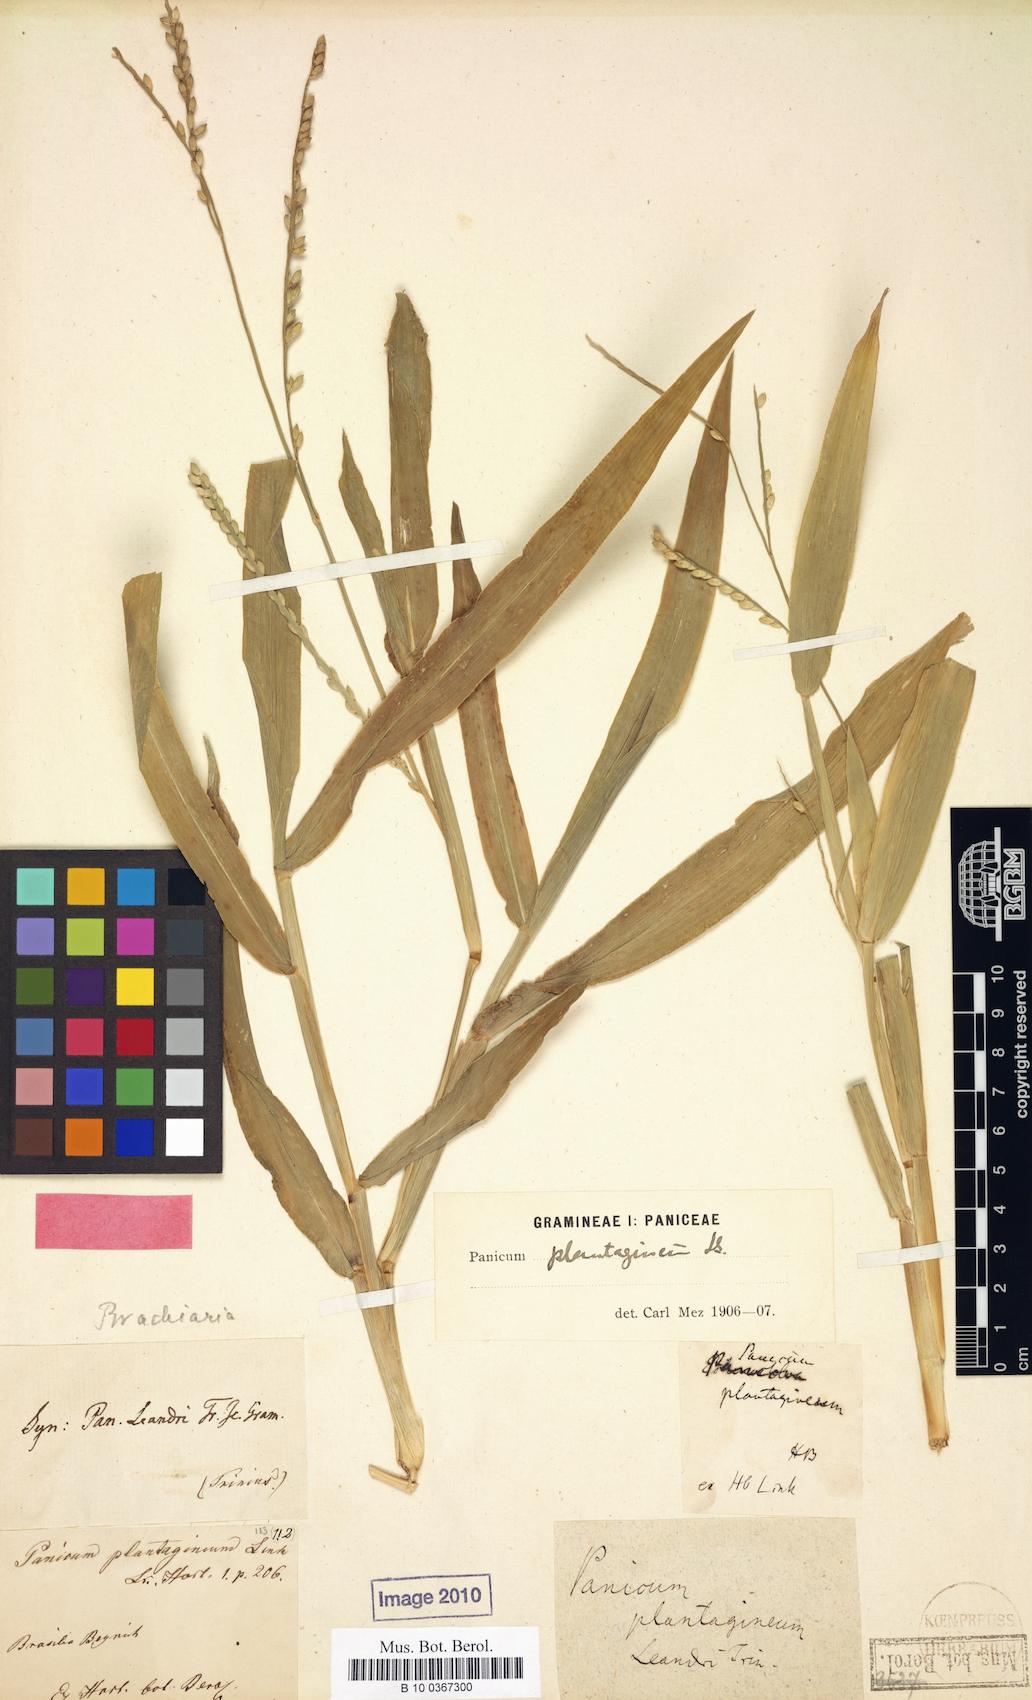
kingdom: Plantae
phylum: Tracheophyta
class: Liliopsida
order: Poales
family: Poaceae
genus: Urochloa
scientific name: Urochloa plantaginea
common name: Plantain signalgrass
